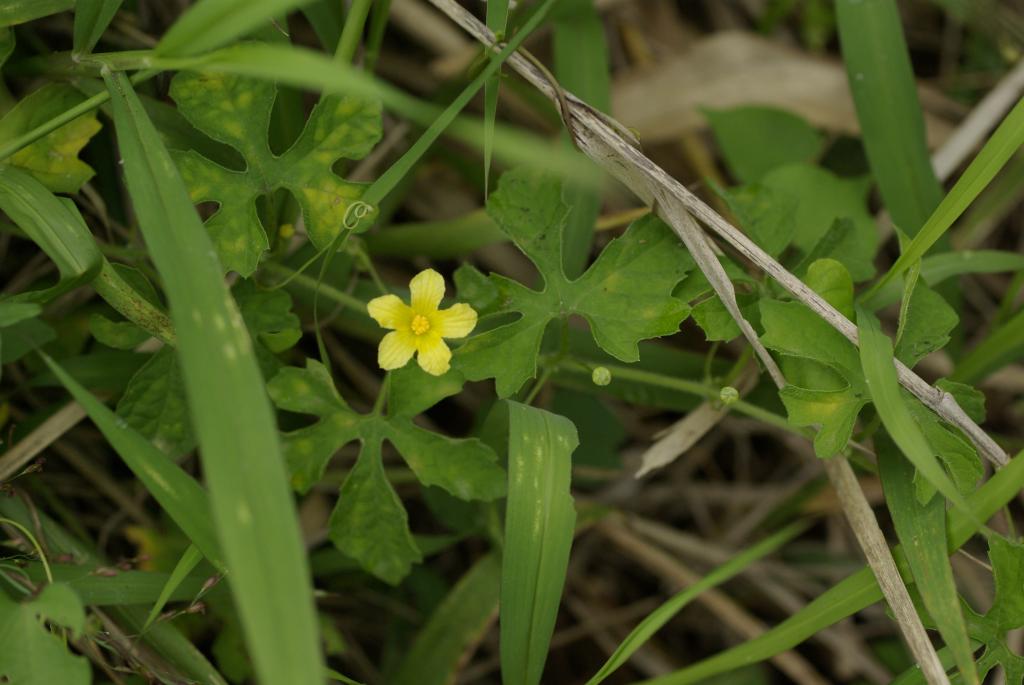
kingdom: Plantae
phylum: Tracheophyta
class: Magnoliopsida
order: Cucurbitales
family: Cucurbitaceae
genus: Momordica
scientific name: Momordica charantia
